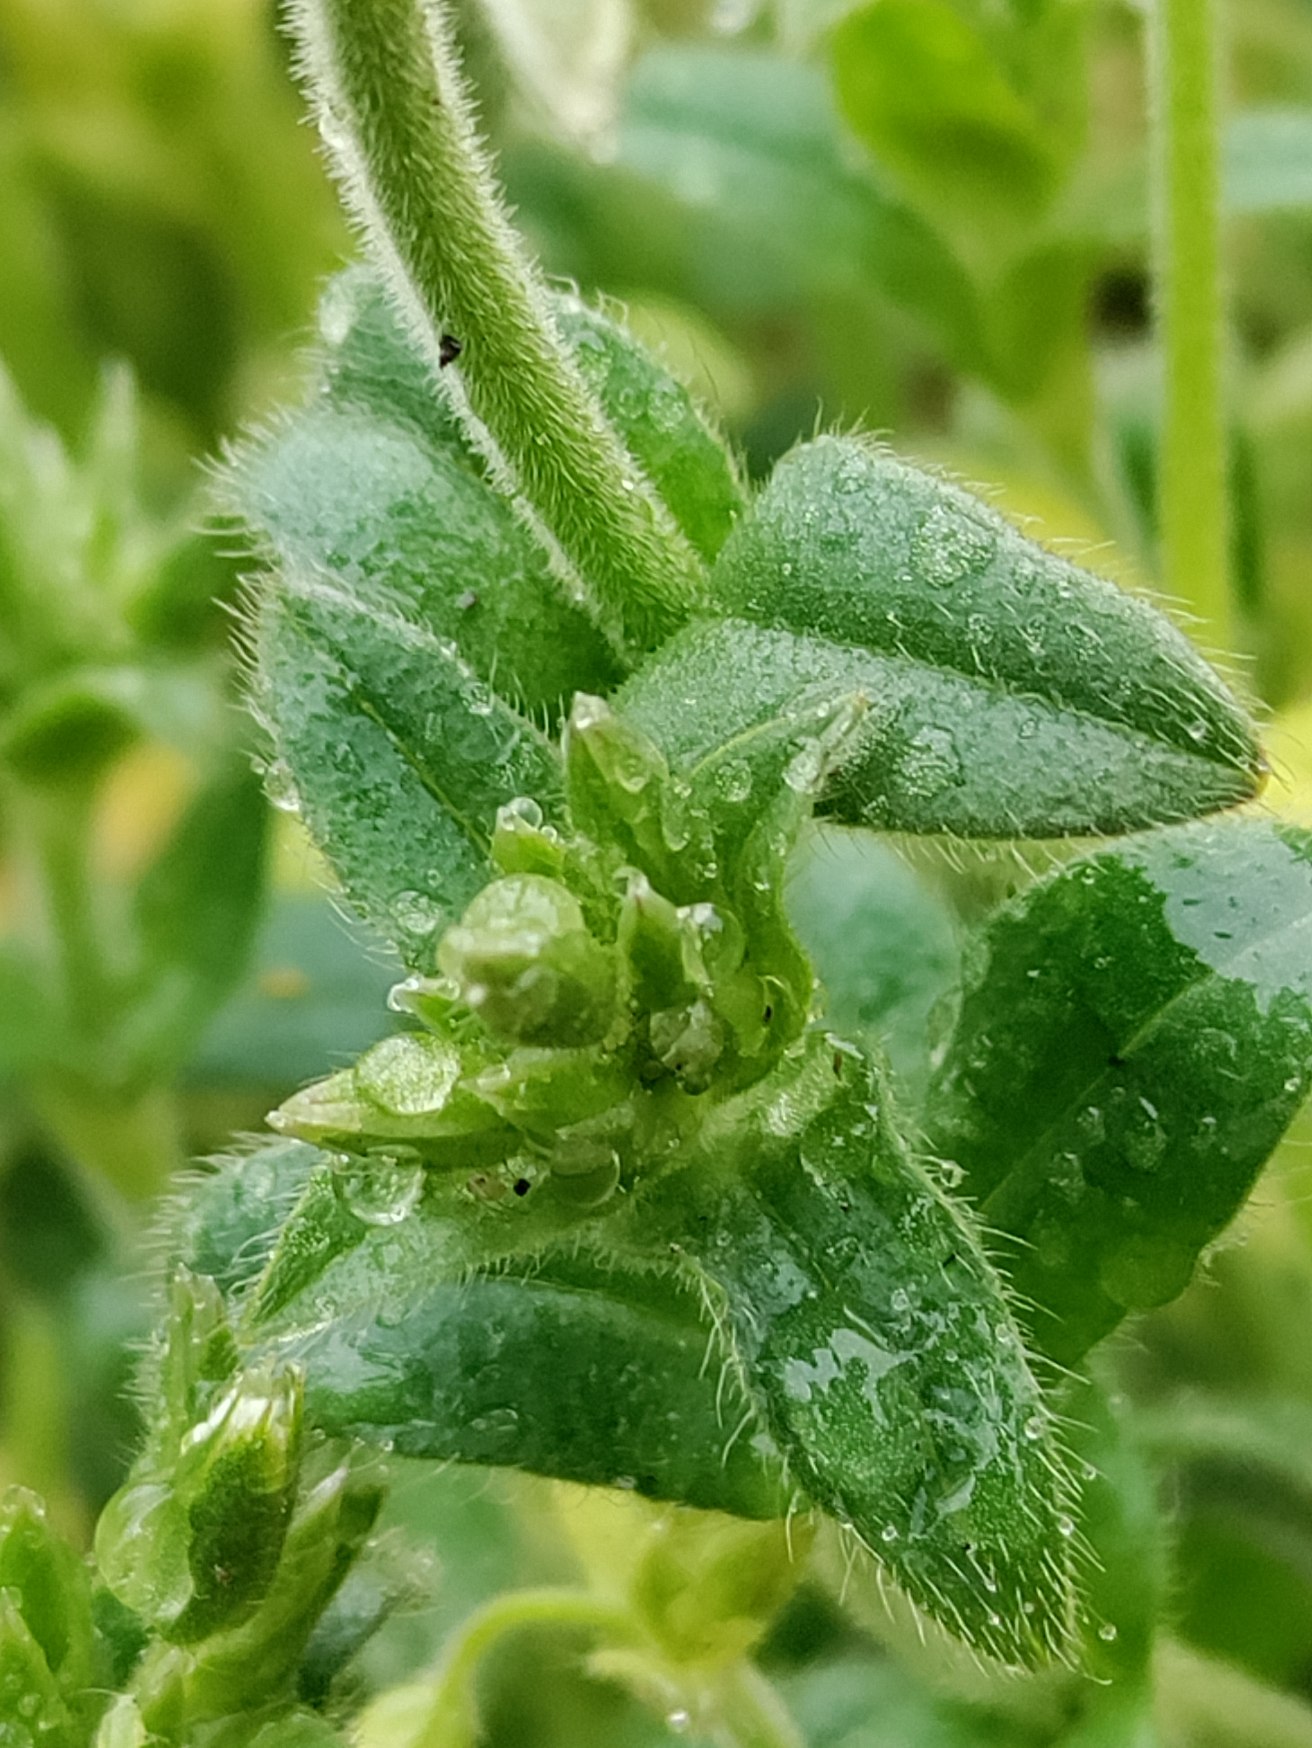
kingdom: Plantae
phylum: Tracheophyta
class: Magnoliopsida
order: Caryophyllales
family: Caryophyllaceae
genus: Cerastium
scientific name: Cerastium fontanum
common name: Almindelig hønsetarm
